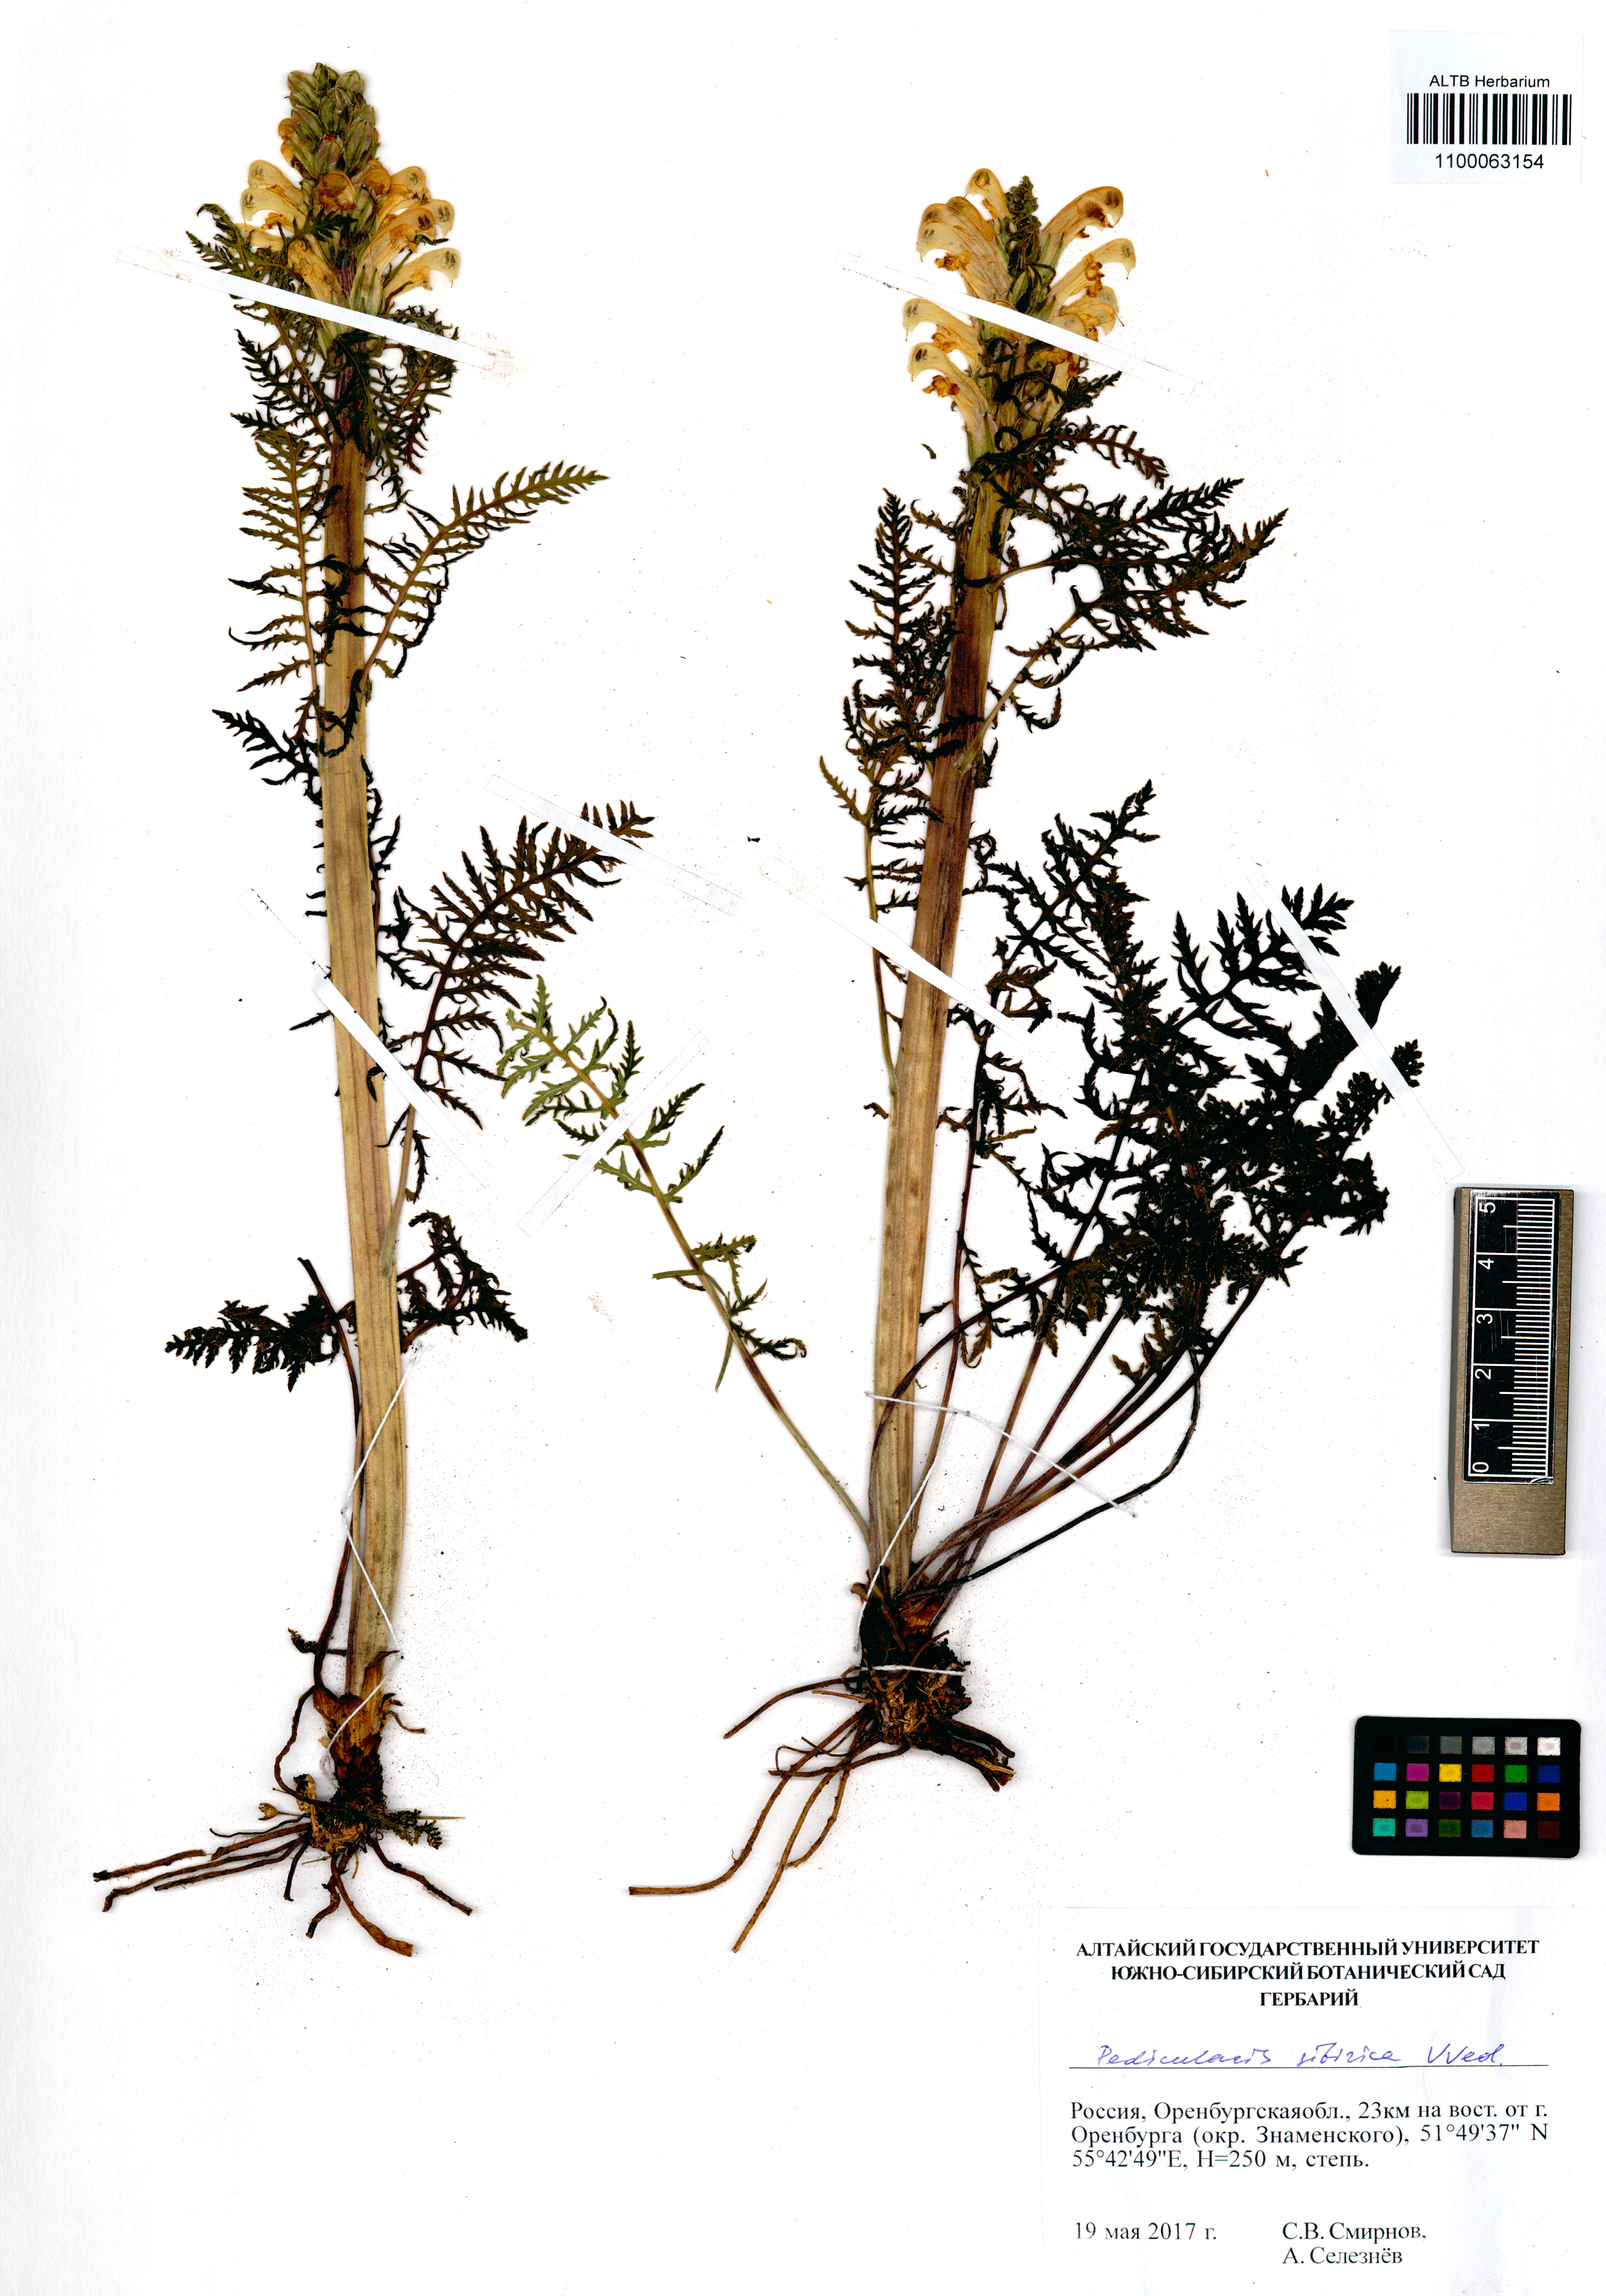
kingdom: Plantae
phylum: Tracheophyta
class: Magnoliopsida
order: Lamiales
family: Orobanchaceae
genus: Pedicularis
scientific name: Pedicularis sibirica
